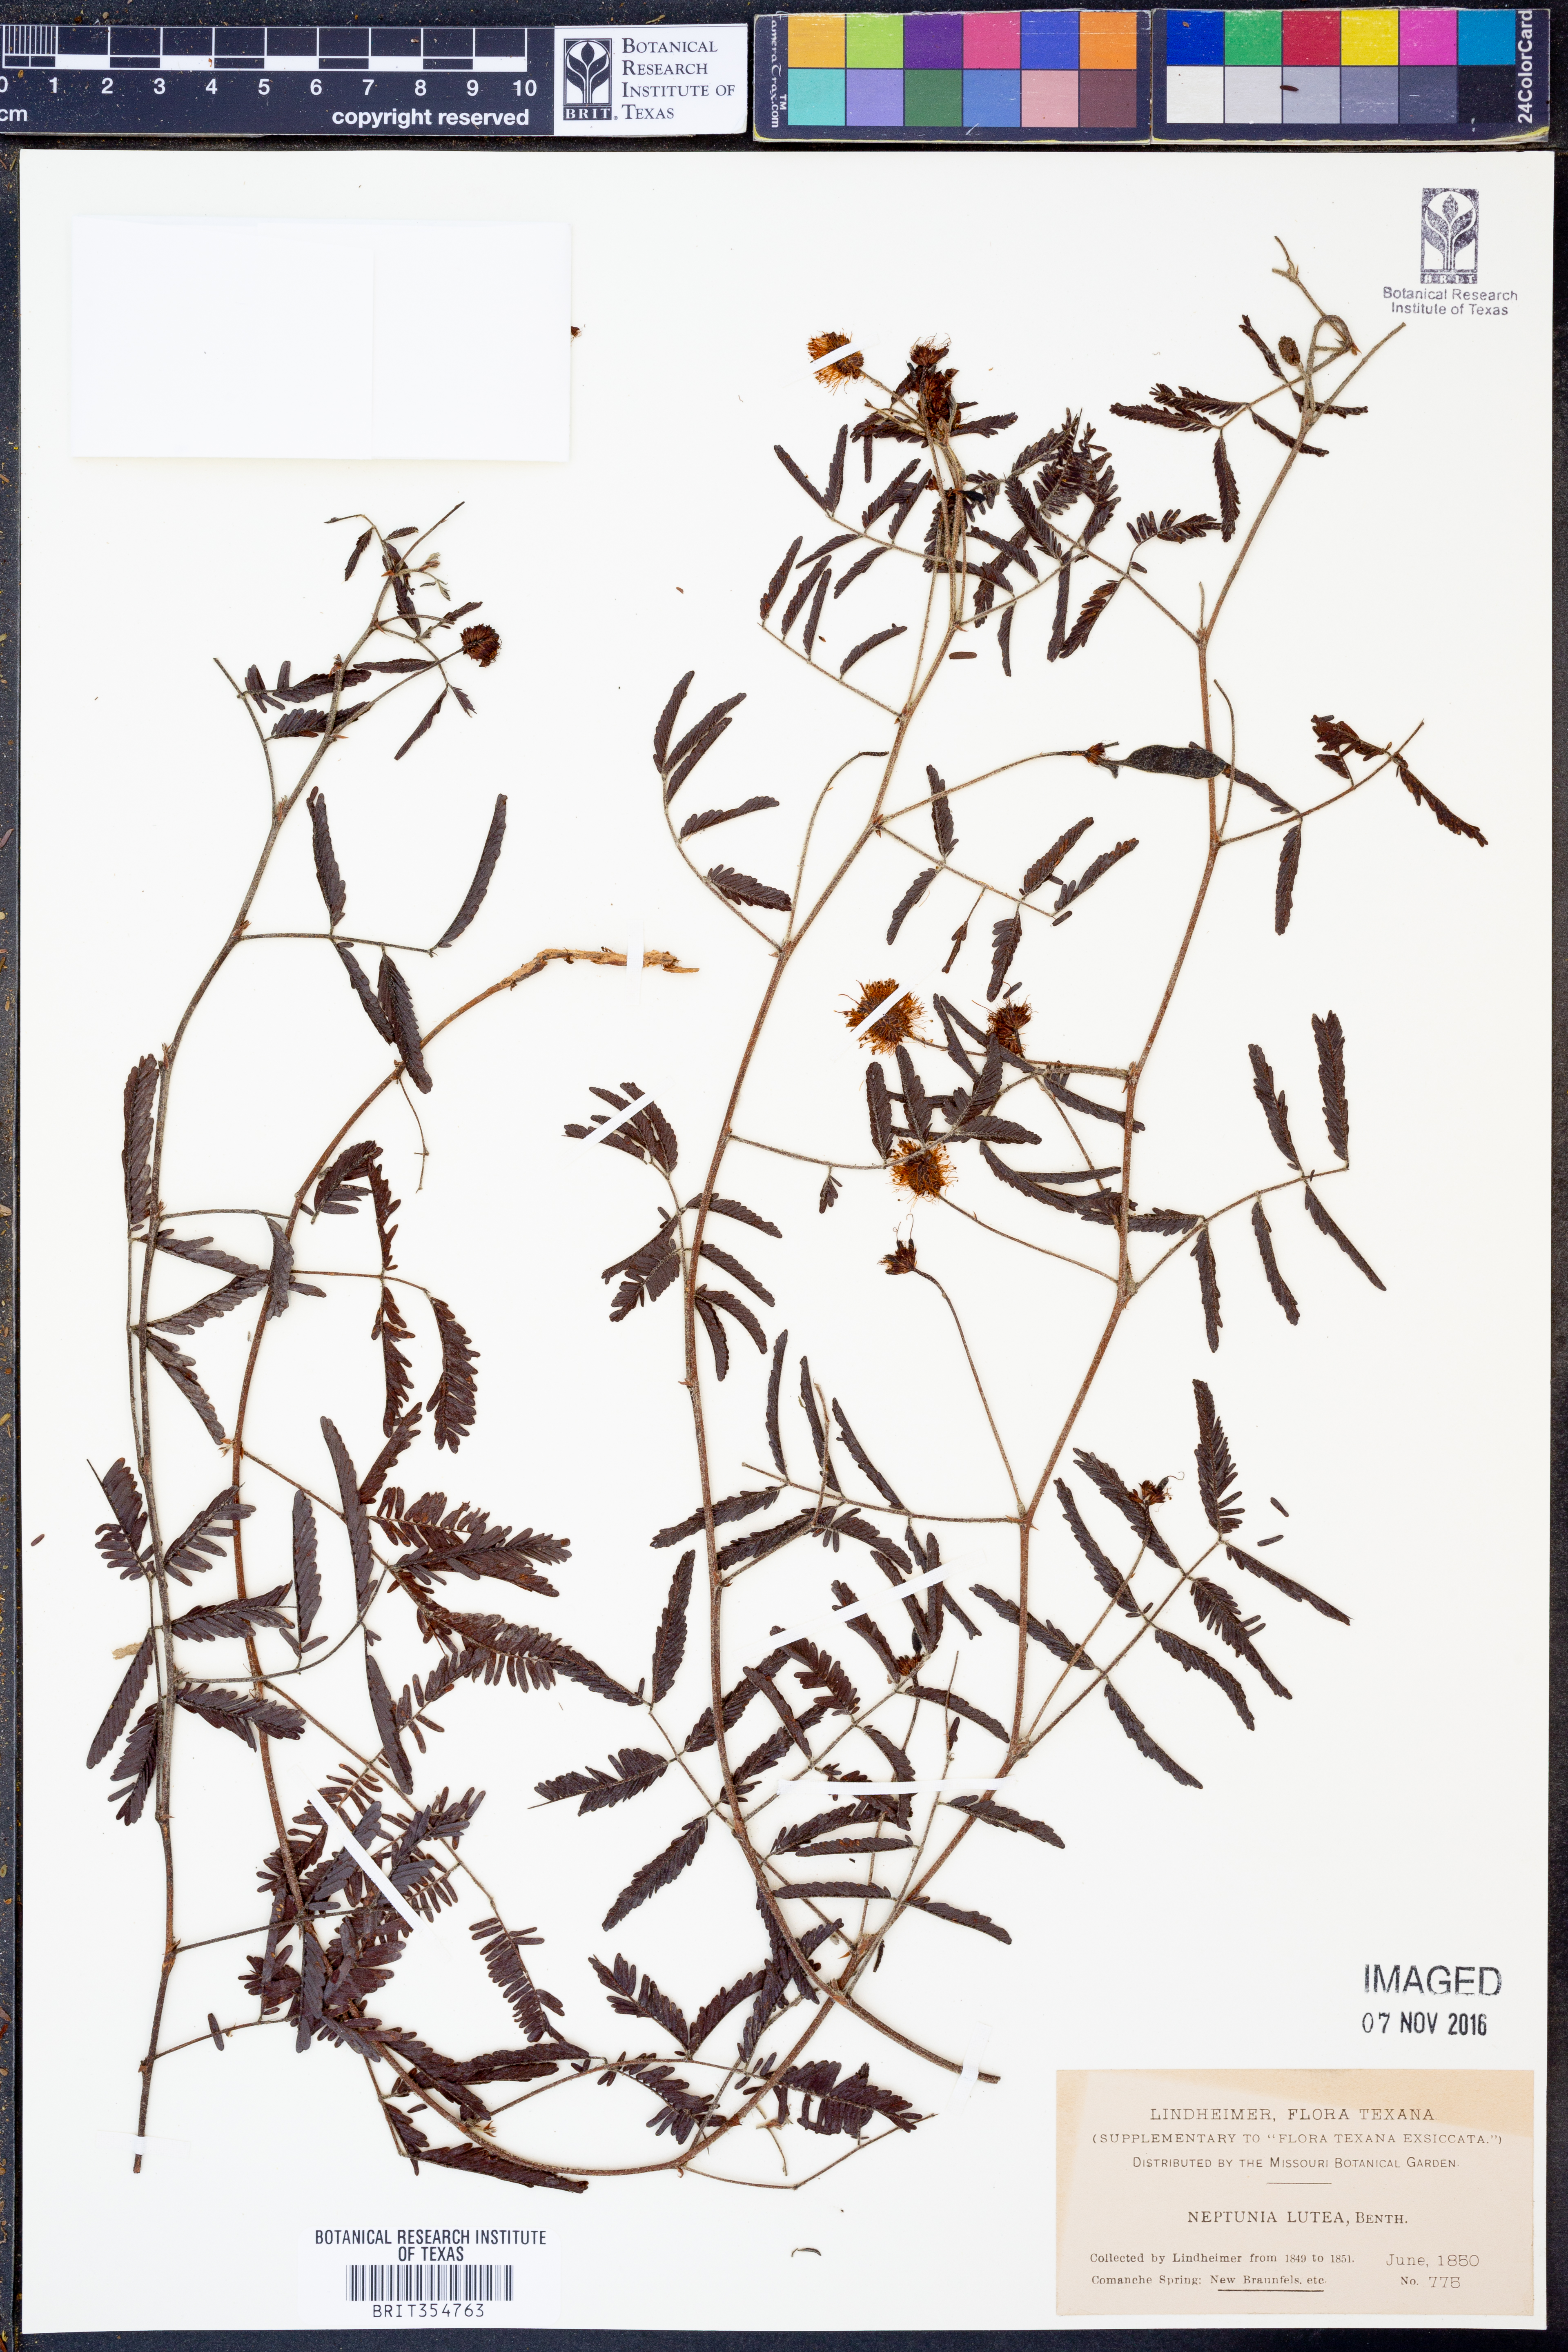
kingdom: Plantae
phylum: Tracheophyta
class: Magnoliopsida
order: Fabales
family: Fabaceae
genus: Neptunia
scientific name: Neptunia lutea
